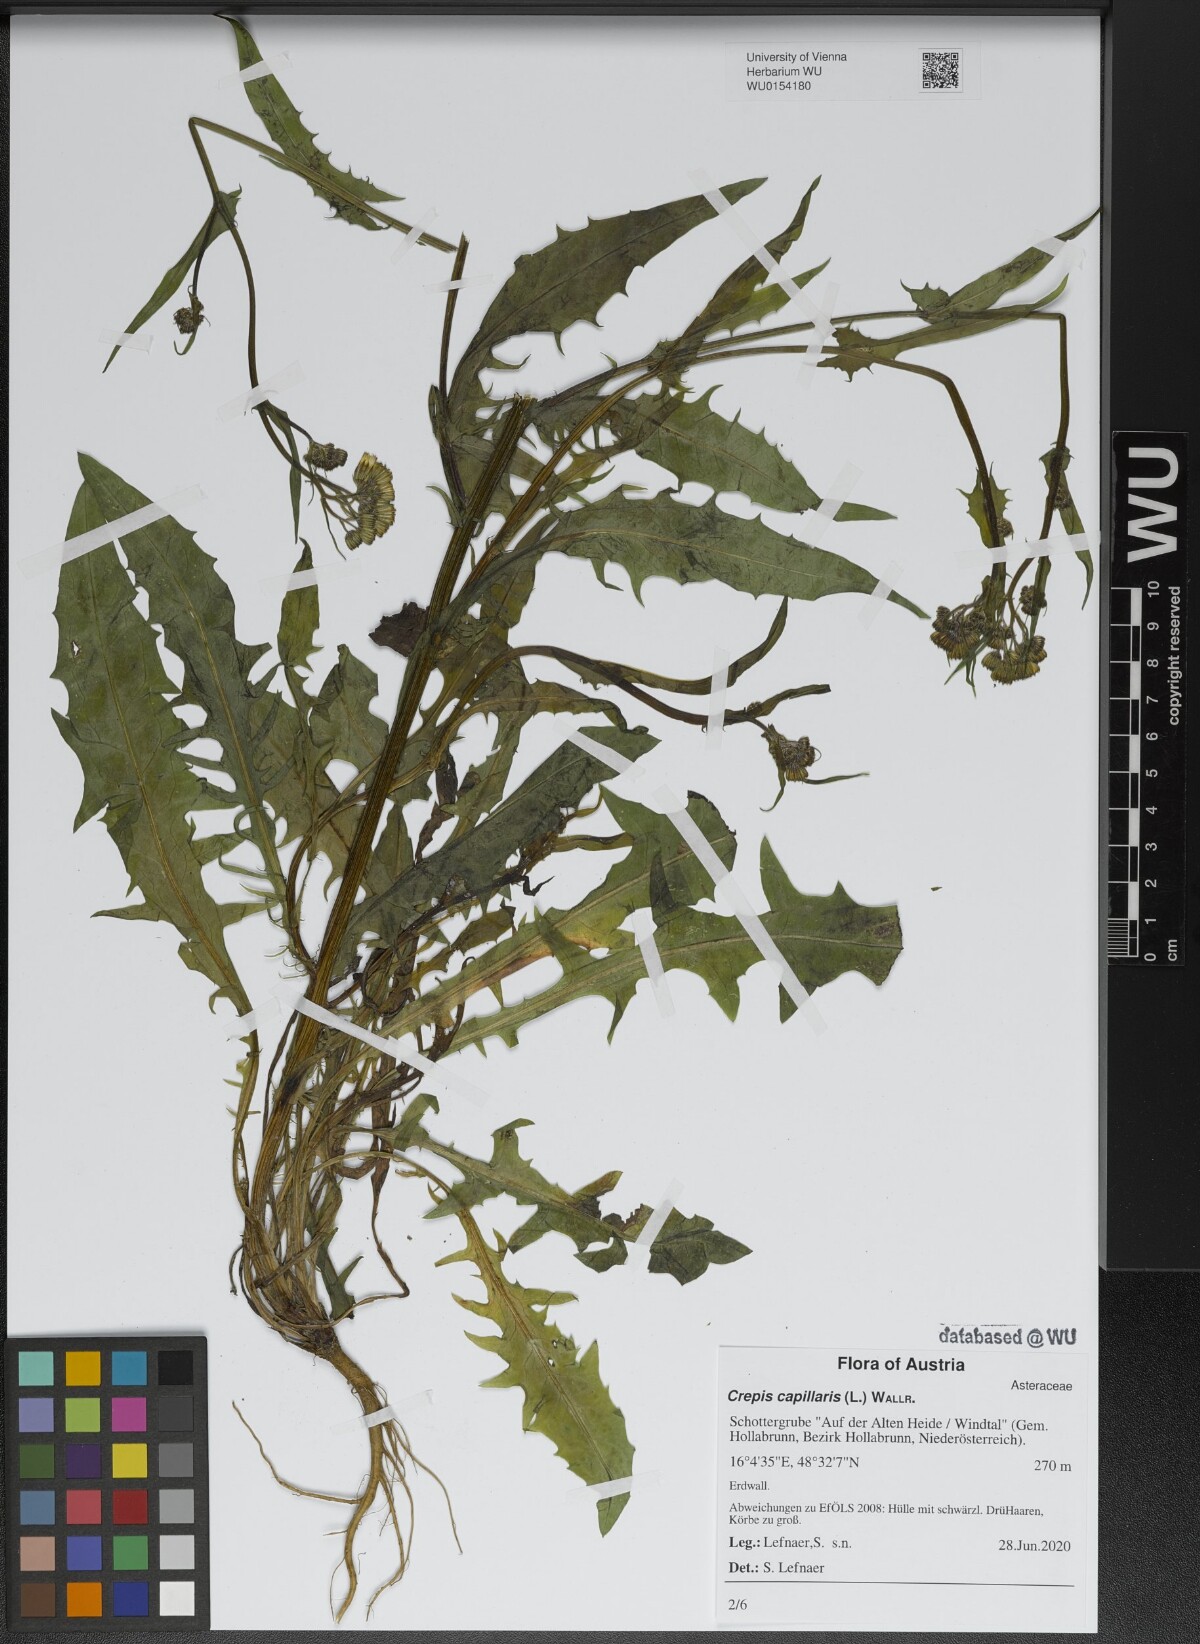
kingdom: Plantae
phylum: Tracheophyta
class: Magnoliopsida
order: Asterales
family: Asteraceae
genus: Crepis
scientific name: Crepis capillaris
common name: Smooth hawksbeard
